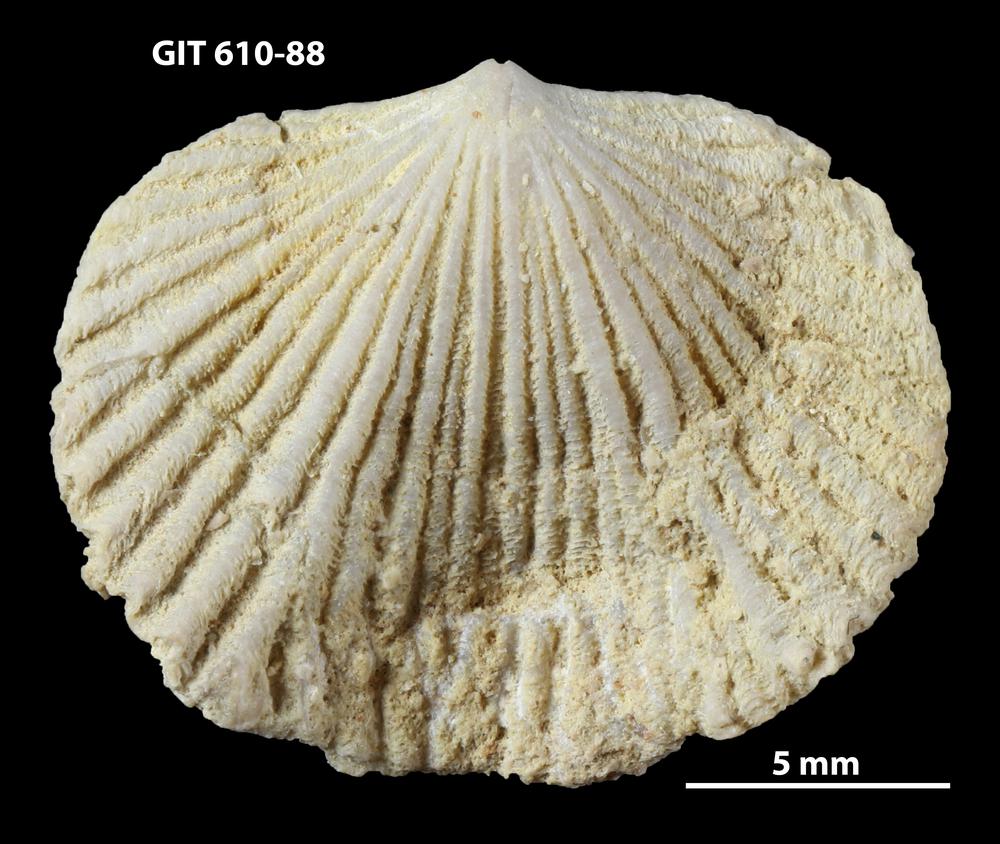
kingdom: Animalia
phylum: Brachiopoda
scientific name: Brachiopoda
